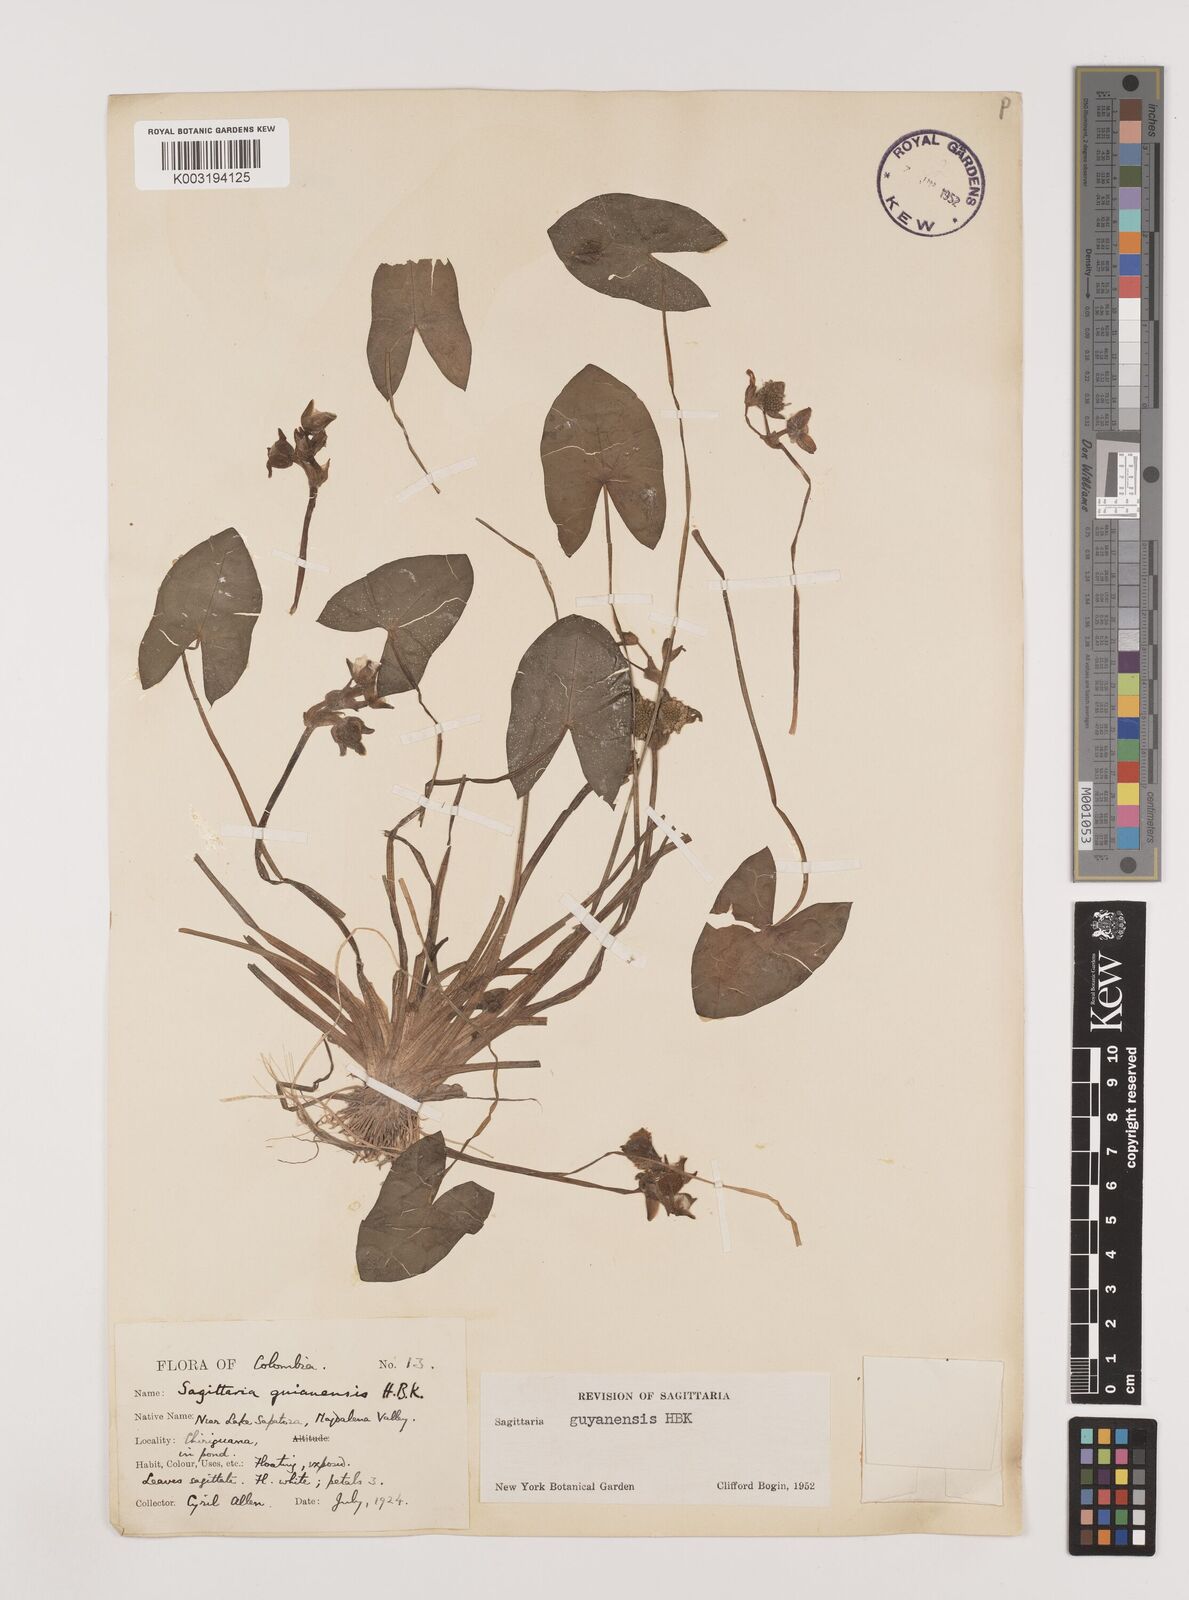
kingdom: Plantae
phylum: Tracheophyta
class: Liliopsida
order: Alismatales
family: Alismataceae
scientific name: Alismataceae
